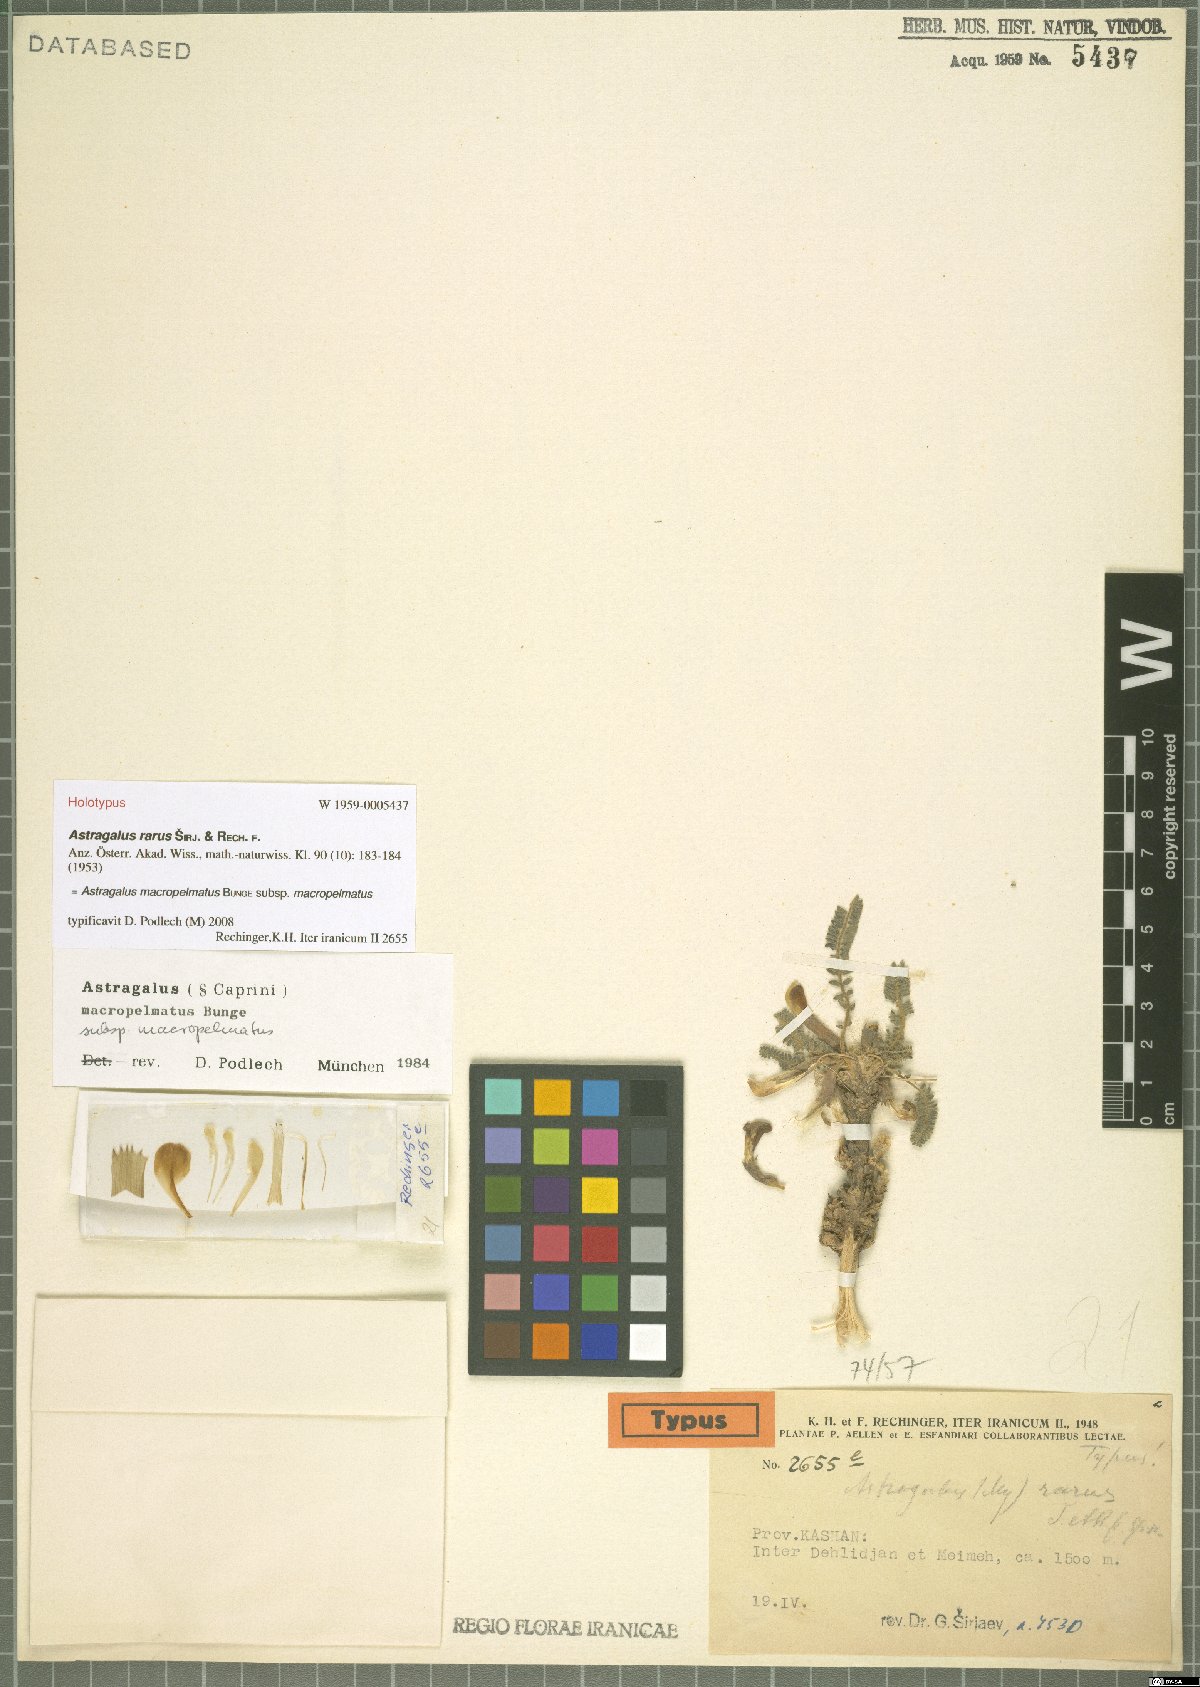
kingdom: Plantae
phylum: Tracheophyta
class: Magnoliopsida
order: Fabales
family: Fabaceae
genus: Astragalus
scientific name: Astragalus macropelmatus
